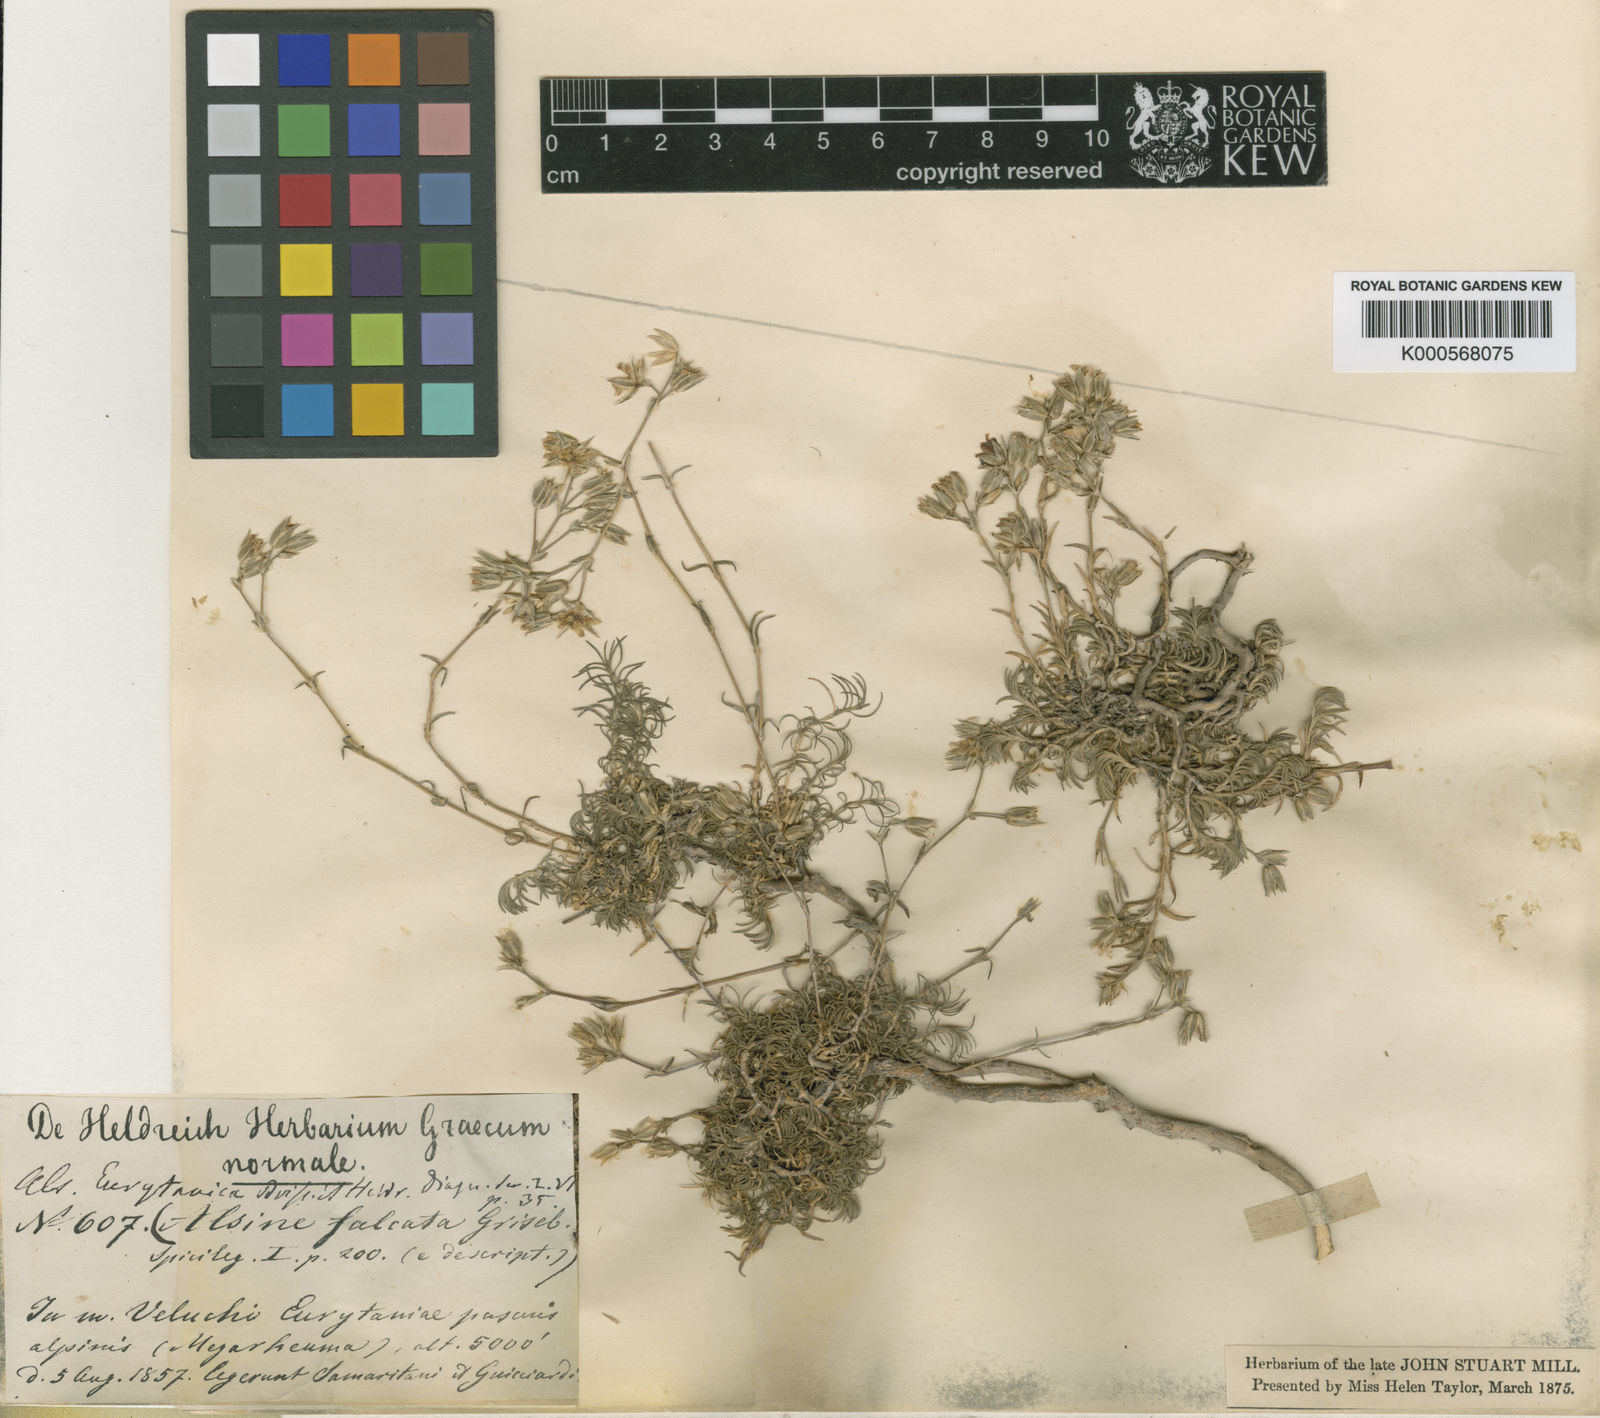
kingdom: Plantae
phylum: Tracheophyta
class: Magnoliopsida
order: Caryophyllales
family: Caryophyllaceae
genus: Minuartia
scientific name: Minuartia eurytanica
